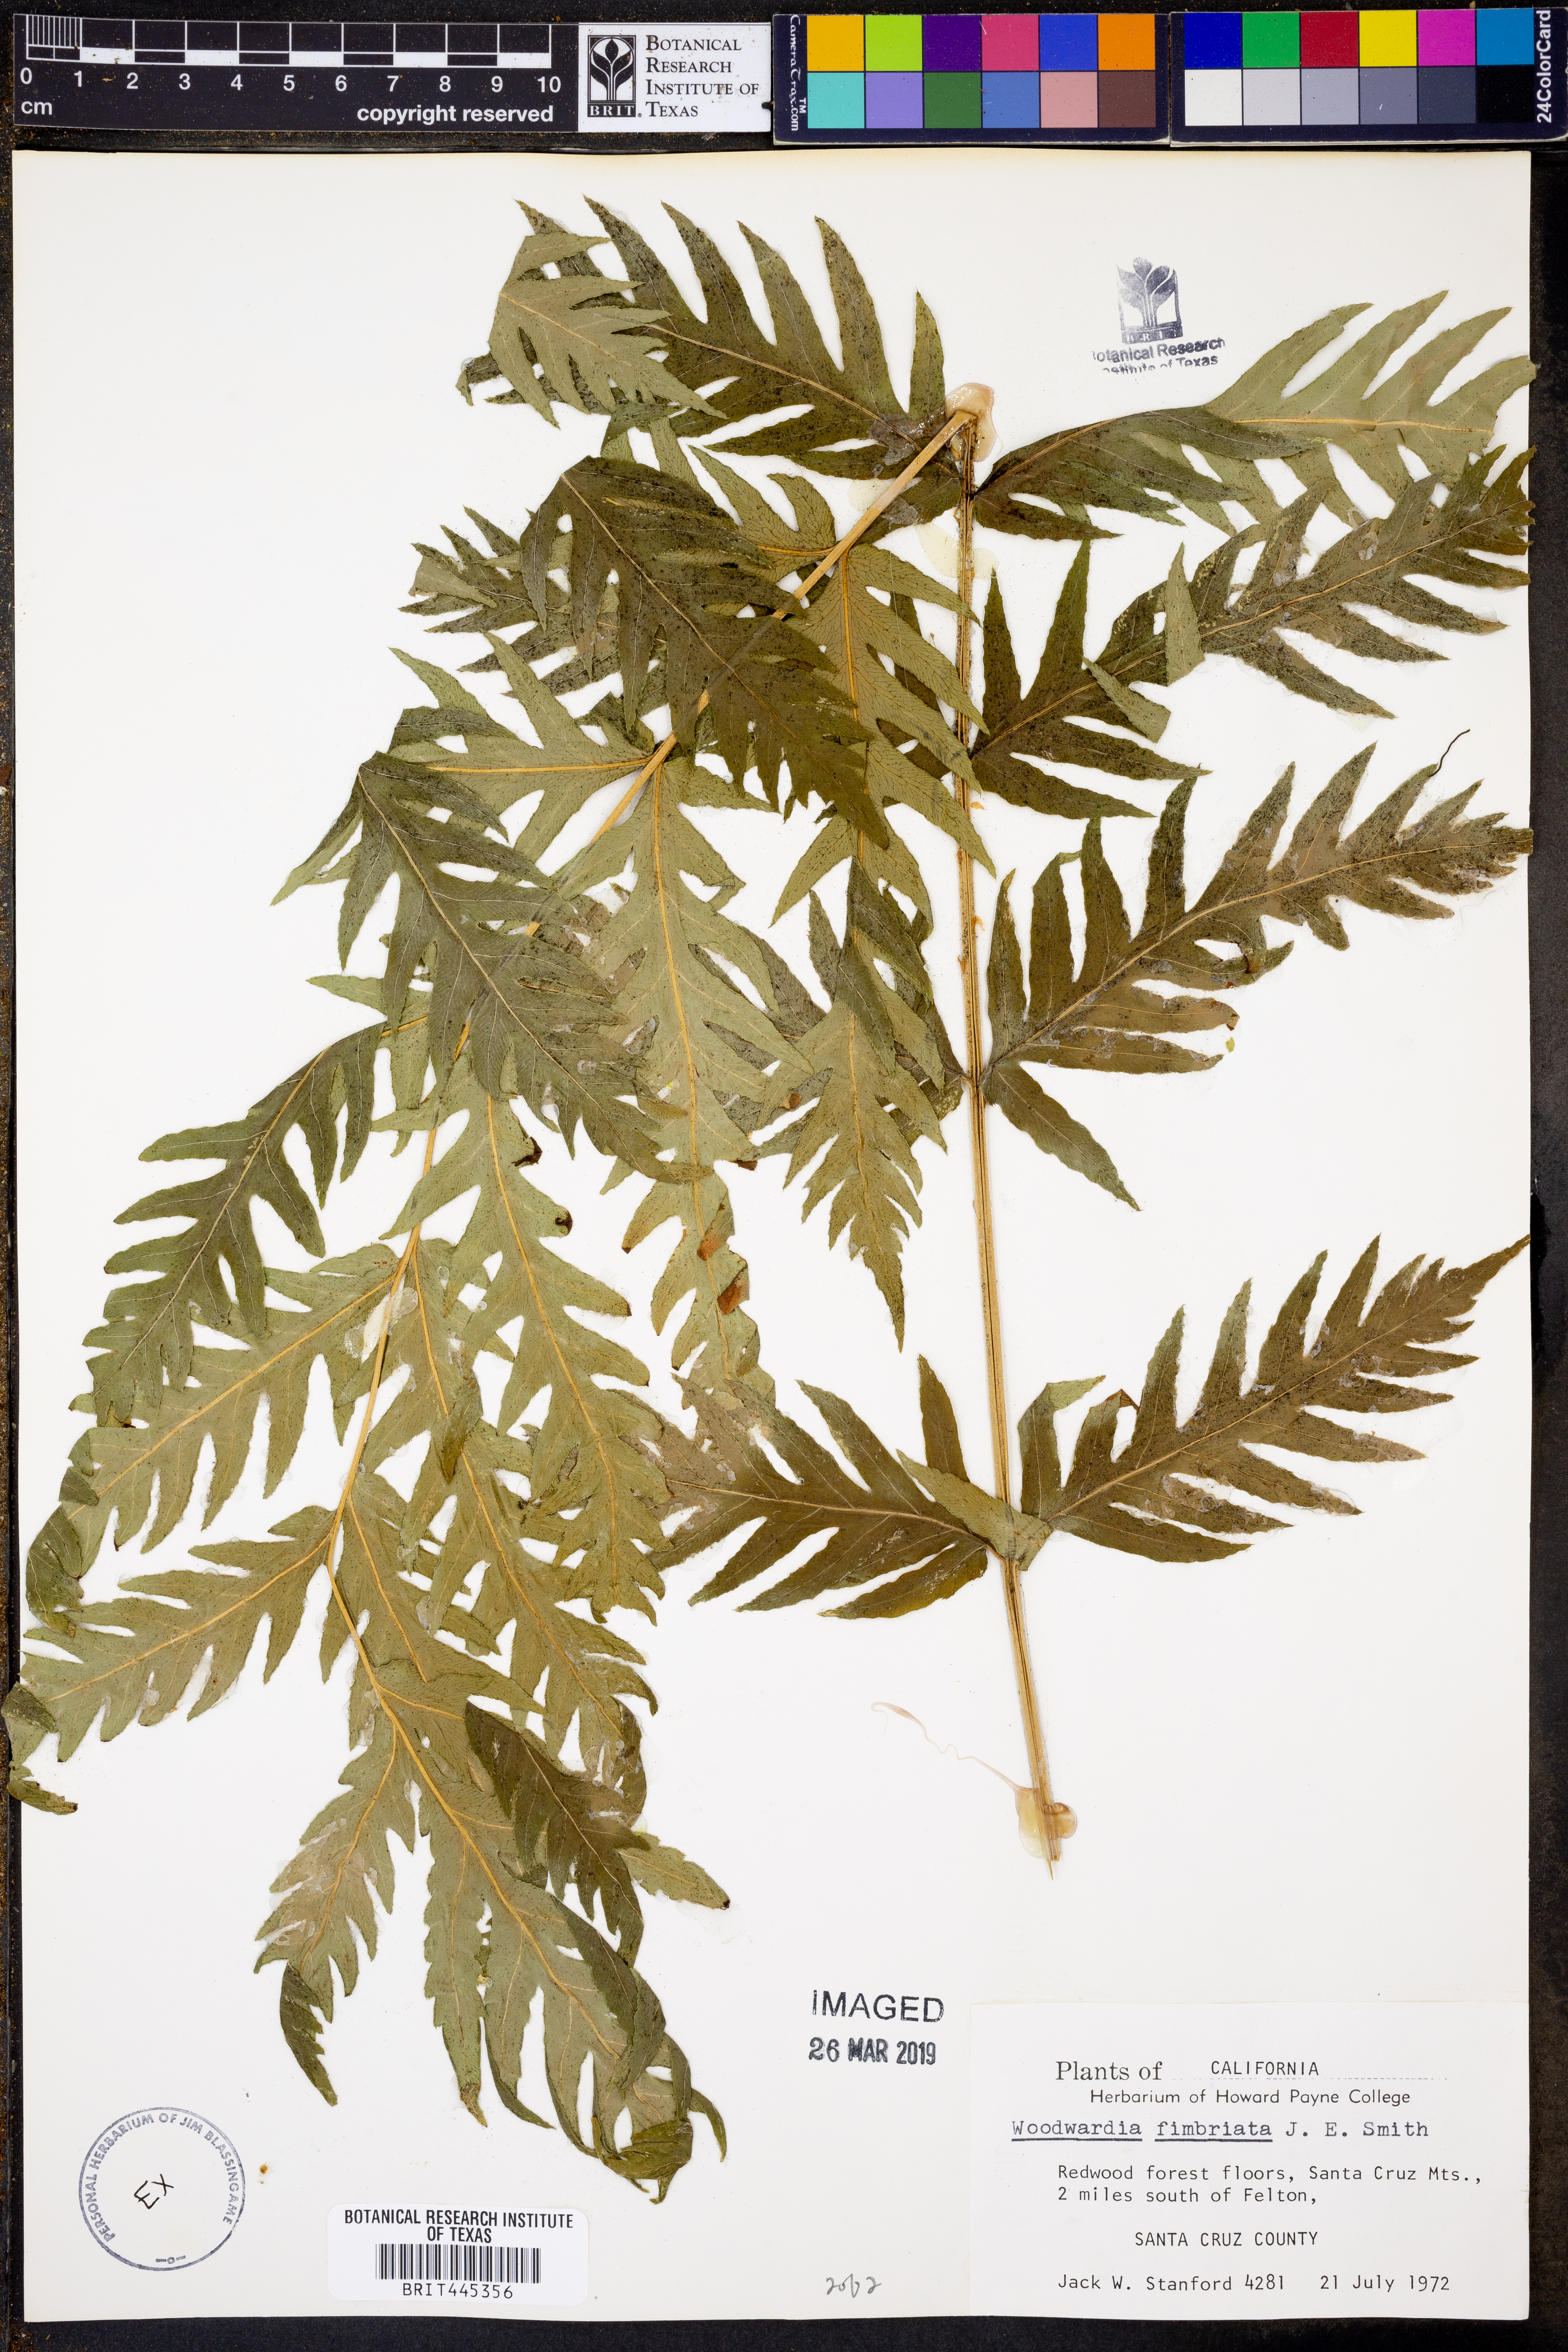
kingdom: Plantae
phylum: Tracheophyta
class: Polypodiopsida
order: Polypodiales
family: Blechnaceae
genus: Woodwardia
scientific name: Woodwardia fimbriata
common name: Giant chain fern
